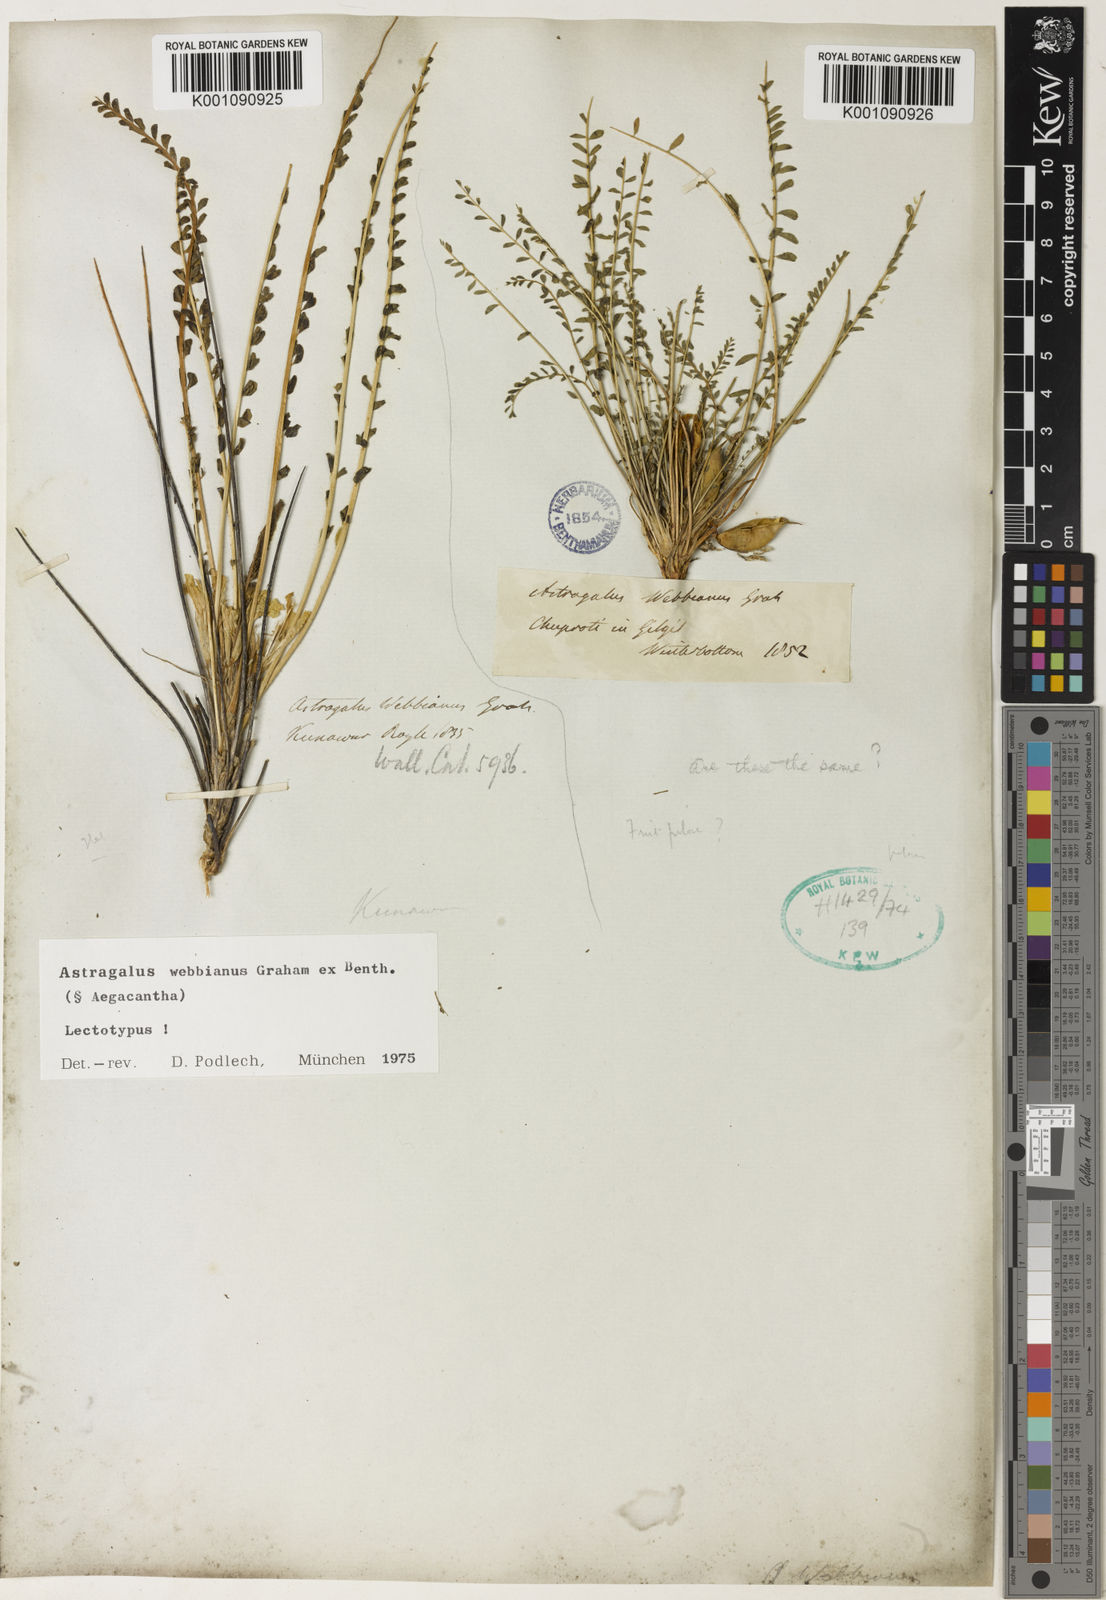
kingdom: Plantae
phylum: Tracheophyta
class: Magnoliopsida
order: Fabales
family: Fabaceae
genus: Astragalus
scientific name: Astragalus
